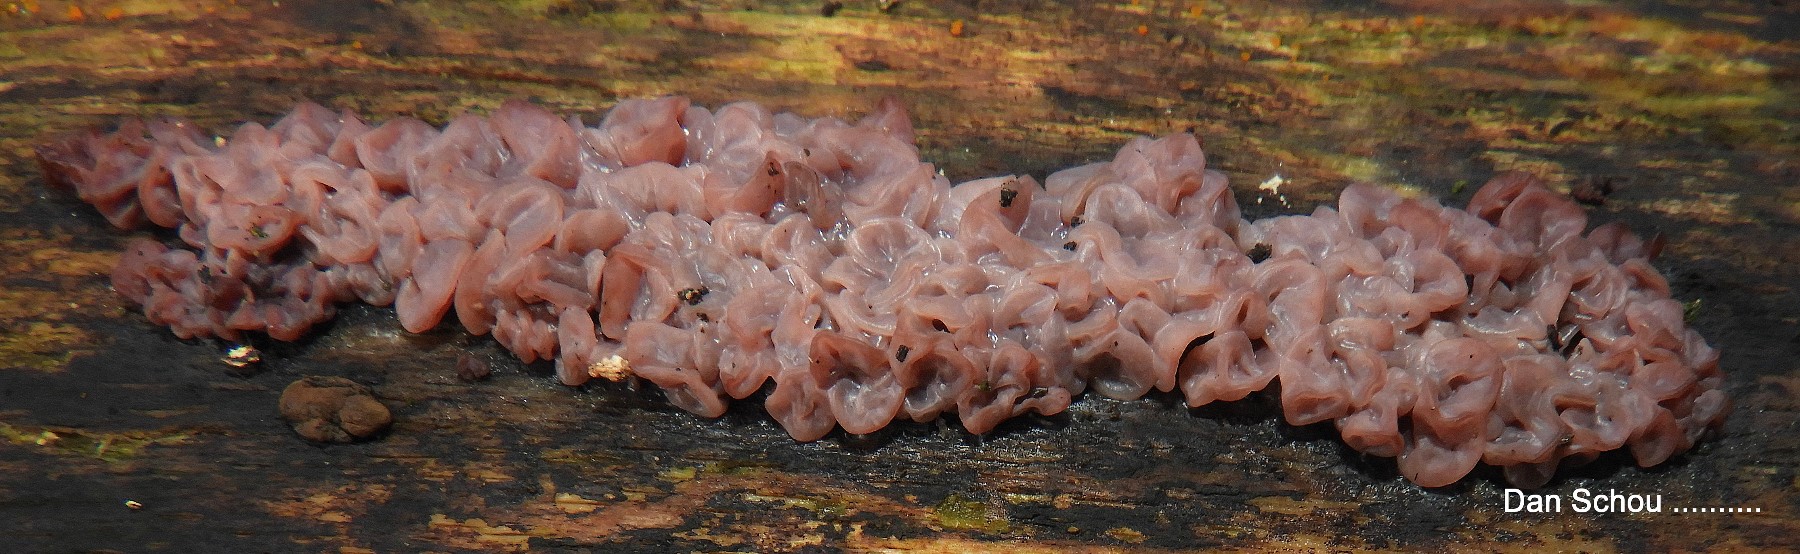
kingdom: Fungi
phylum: Ascomycota
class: Leotiomycetes
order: Helotiales
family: Gelatinodiscaceae
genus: Ascocoryne
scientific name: Ascocoryne sarcoides
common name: rødlilla sejskive
